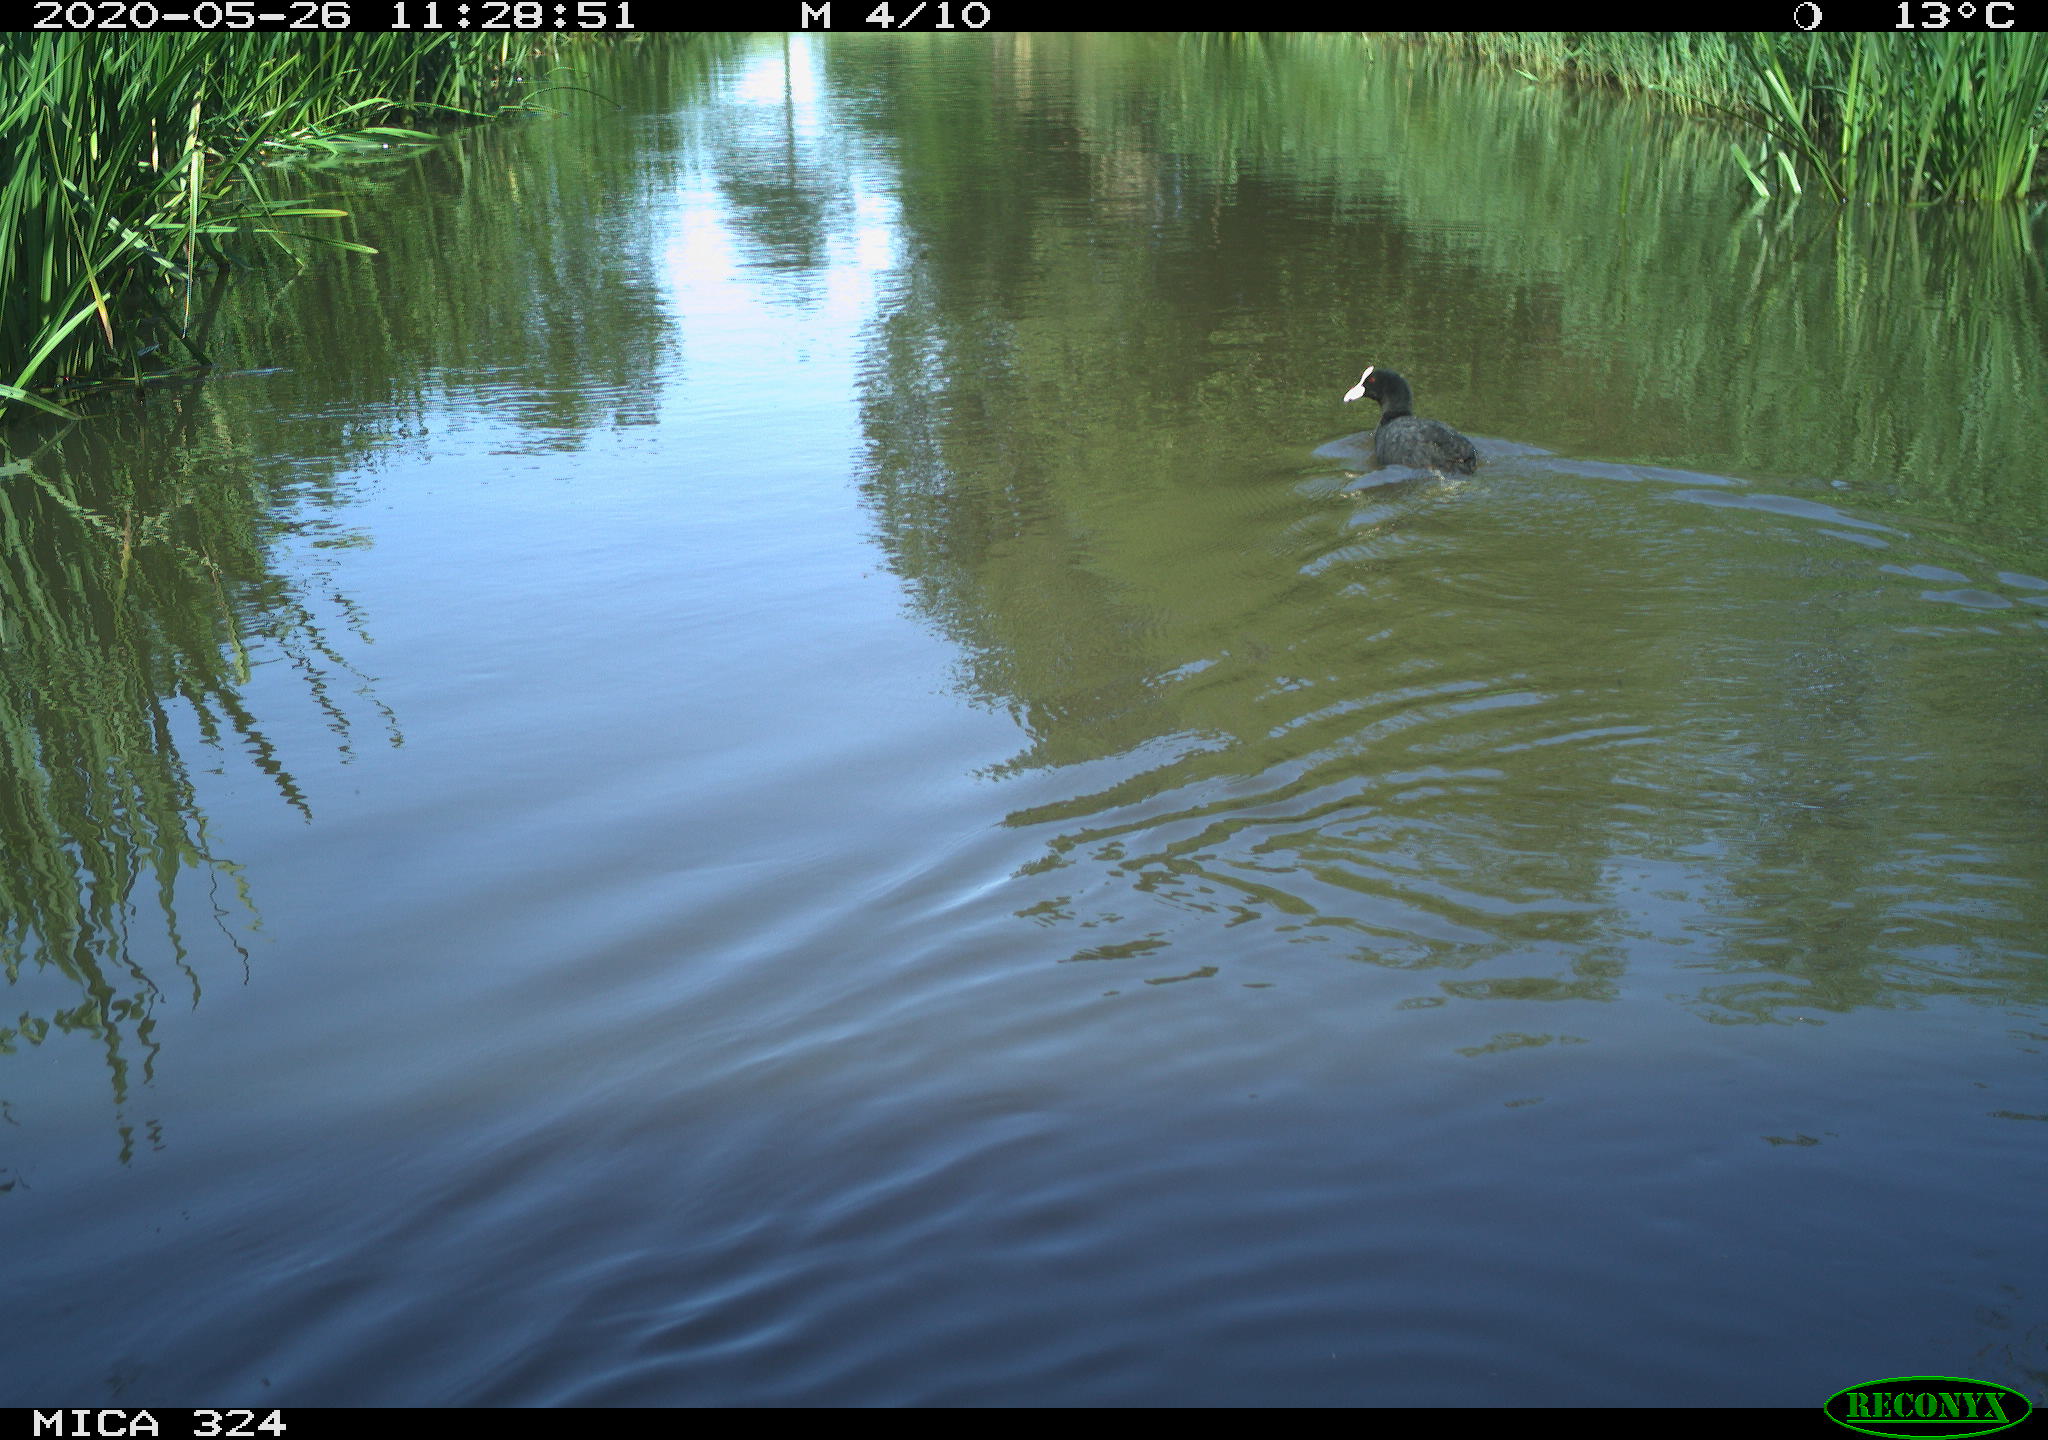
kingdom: Animalia
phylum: Chordata
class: Aves
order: Gruiformes
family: Rallidae
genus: Gallinula
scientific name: Gallinula chloropus
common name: Common moorhen
